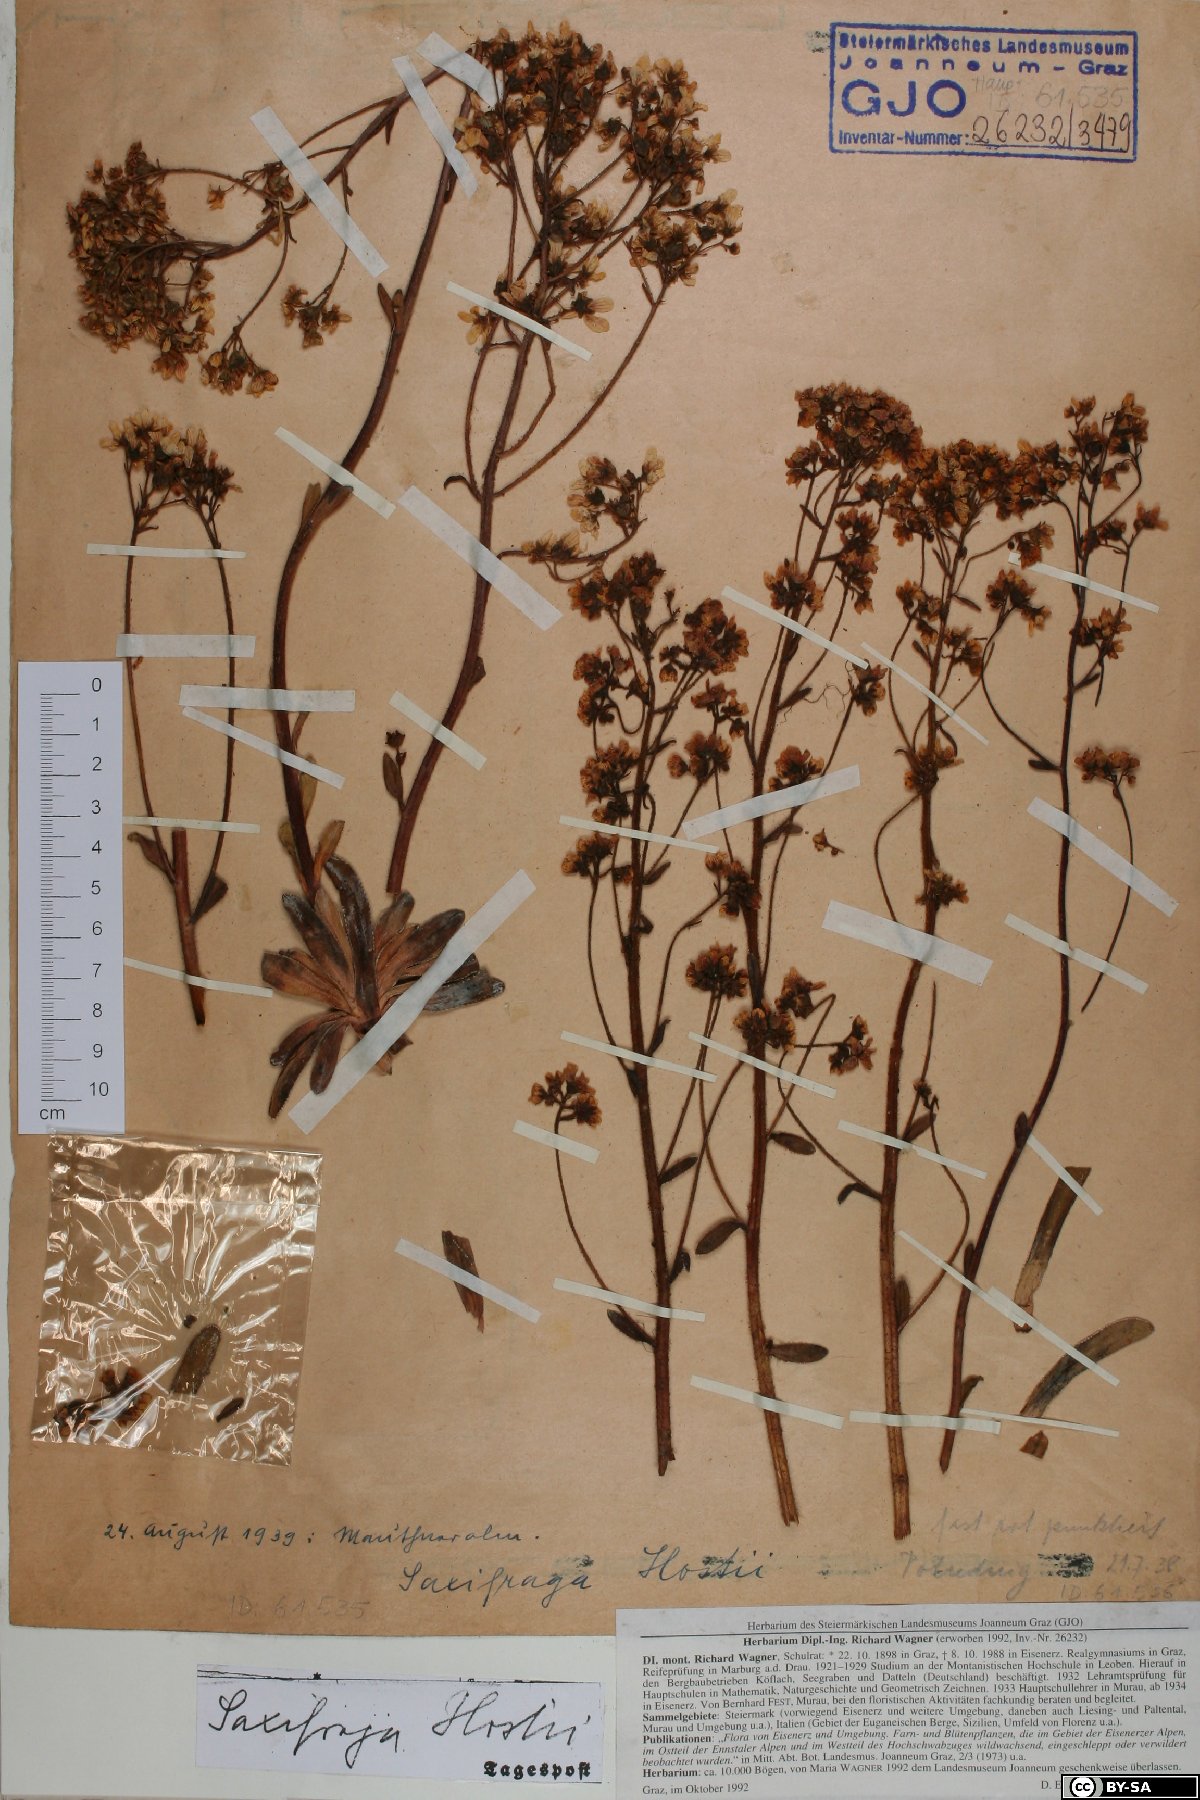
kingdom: Plantae
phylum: Tracheophyta
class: Magnoliopsida
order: Saxifragales
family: Saxifragaceae
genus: Saxifraga
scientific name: Saxifraga hostii
